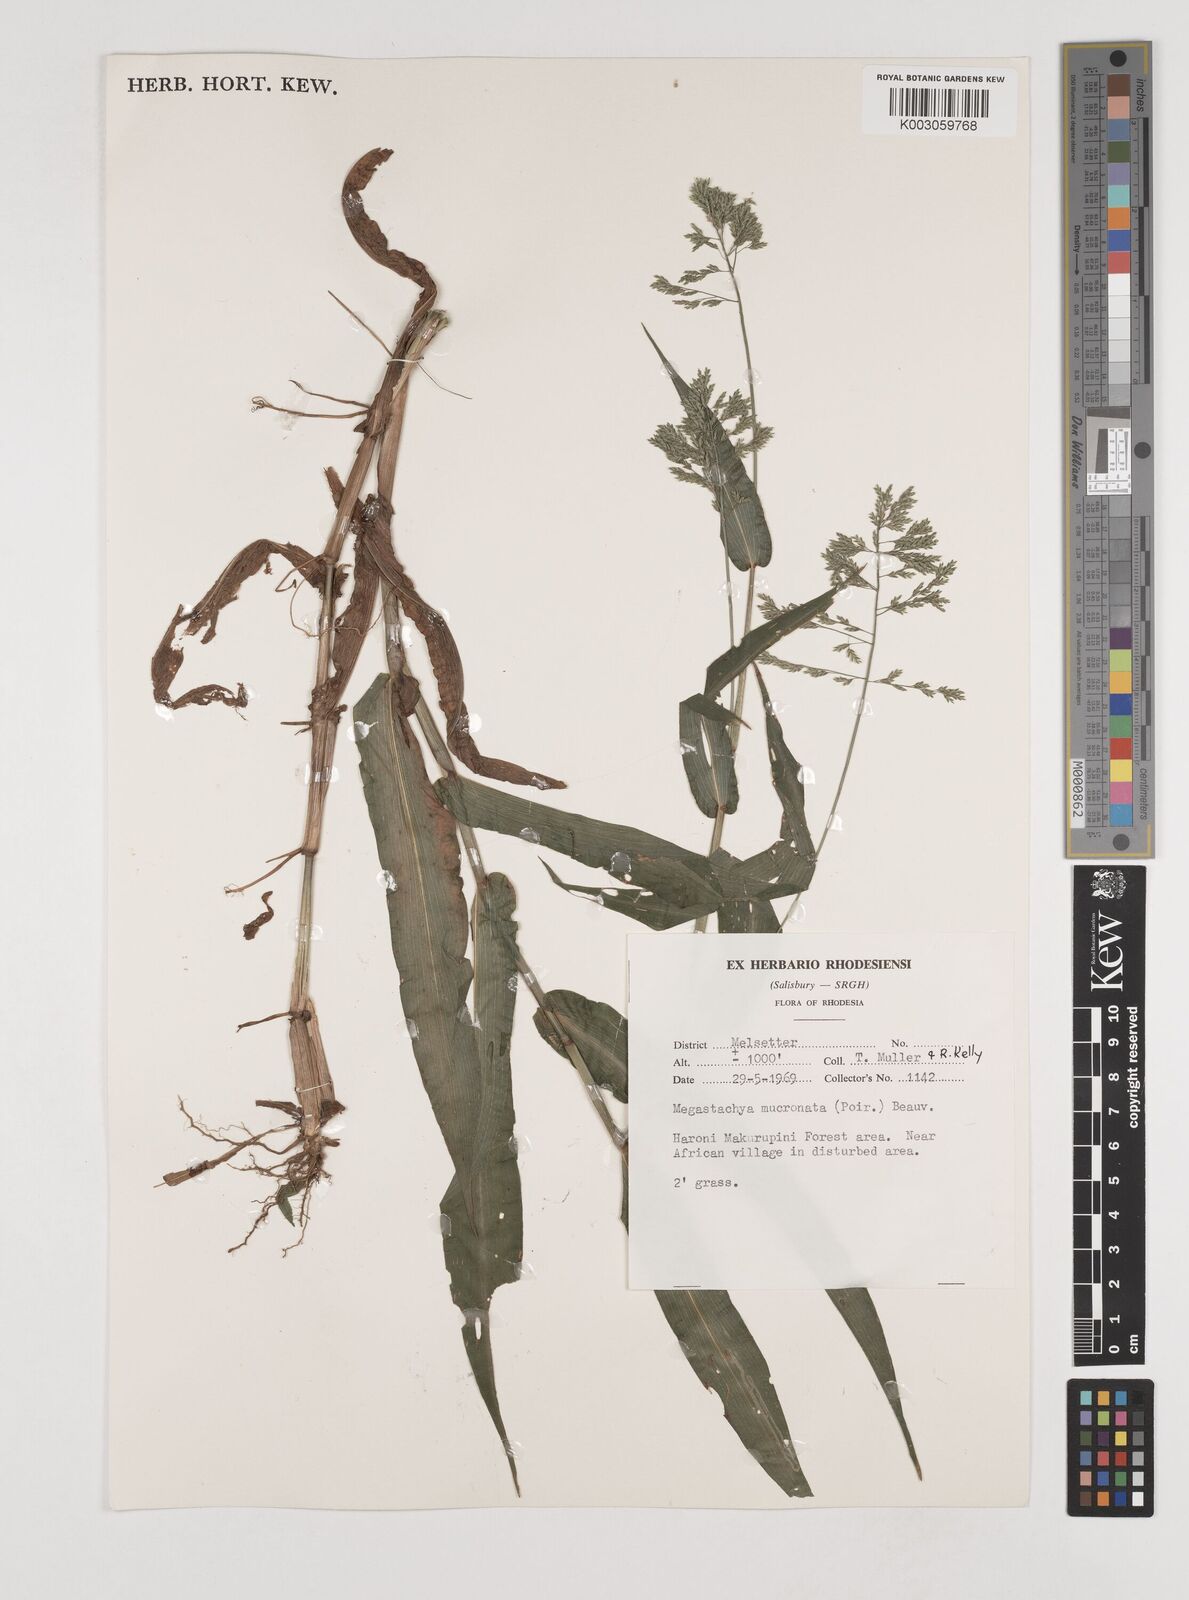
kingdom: Plantae
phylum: Tracheophyta
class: Liliopsida
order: Poales
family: Poaceae
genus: Megastachya
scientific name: Megastachya mucronata
